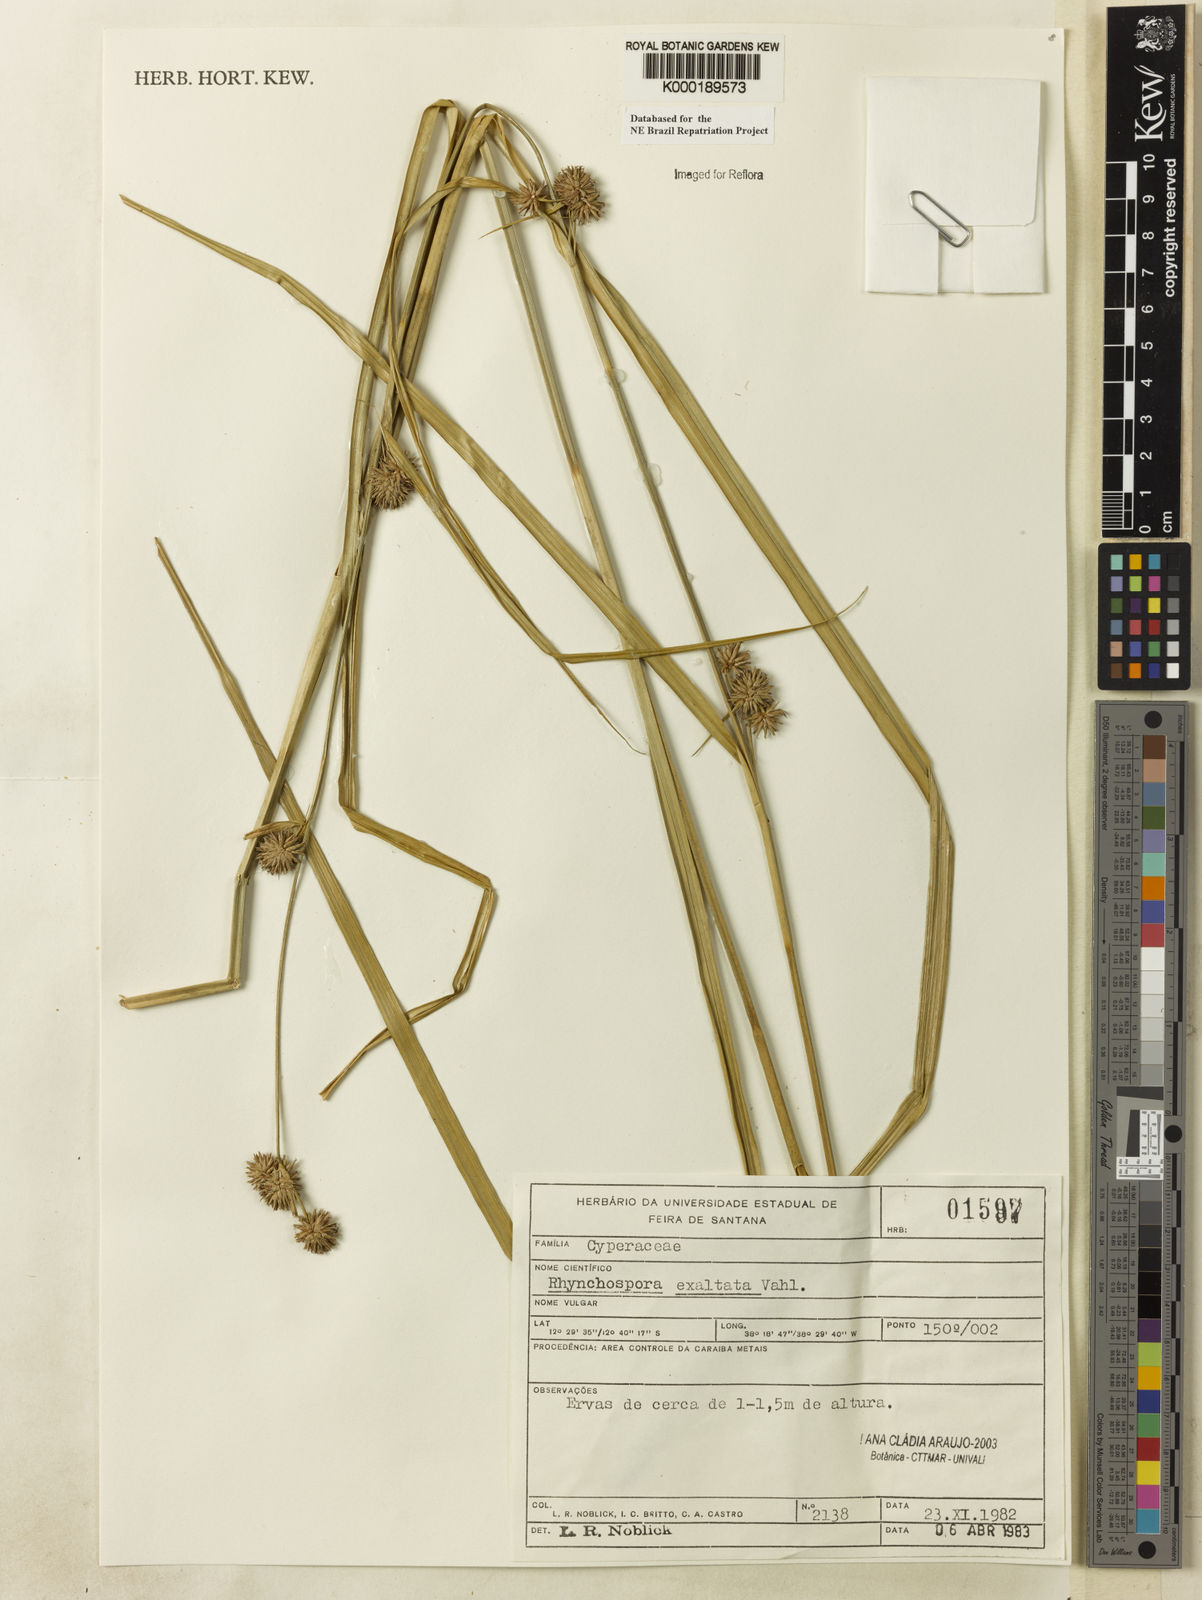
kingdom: Plantae
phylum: Tracheophyta
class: Liliopsida
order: Poales
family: Cyperaceae
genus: Rhynchospora
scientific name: Rhynchospora exaltata
